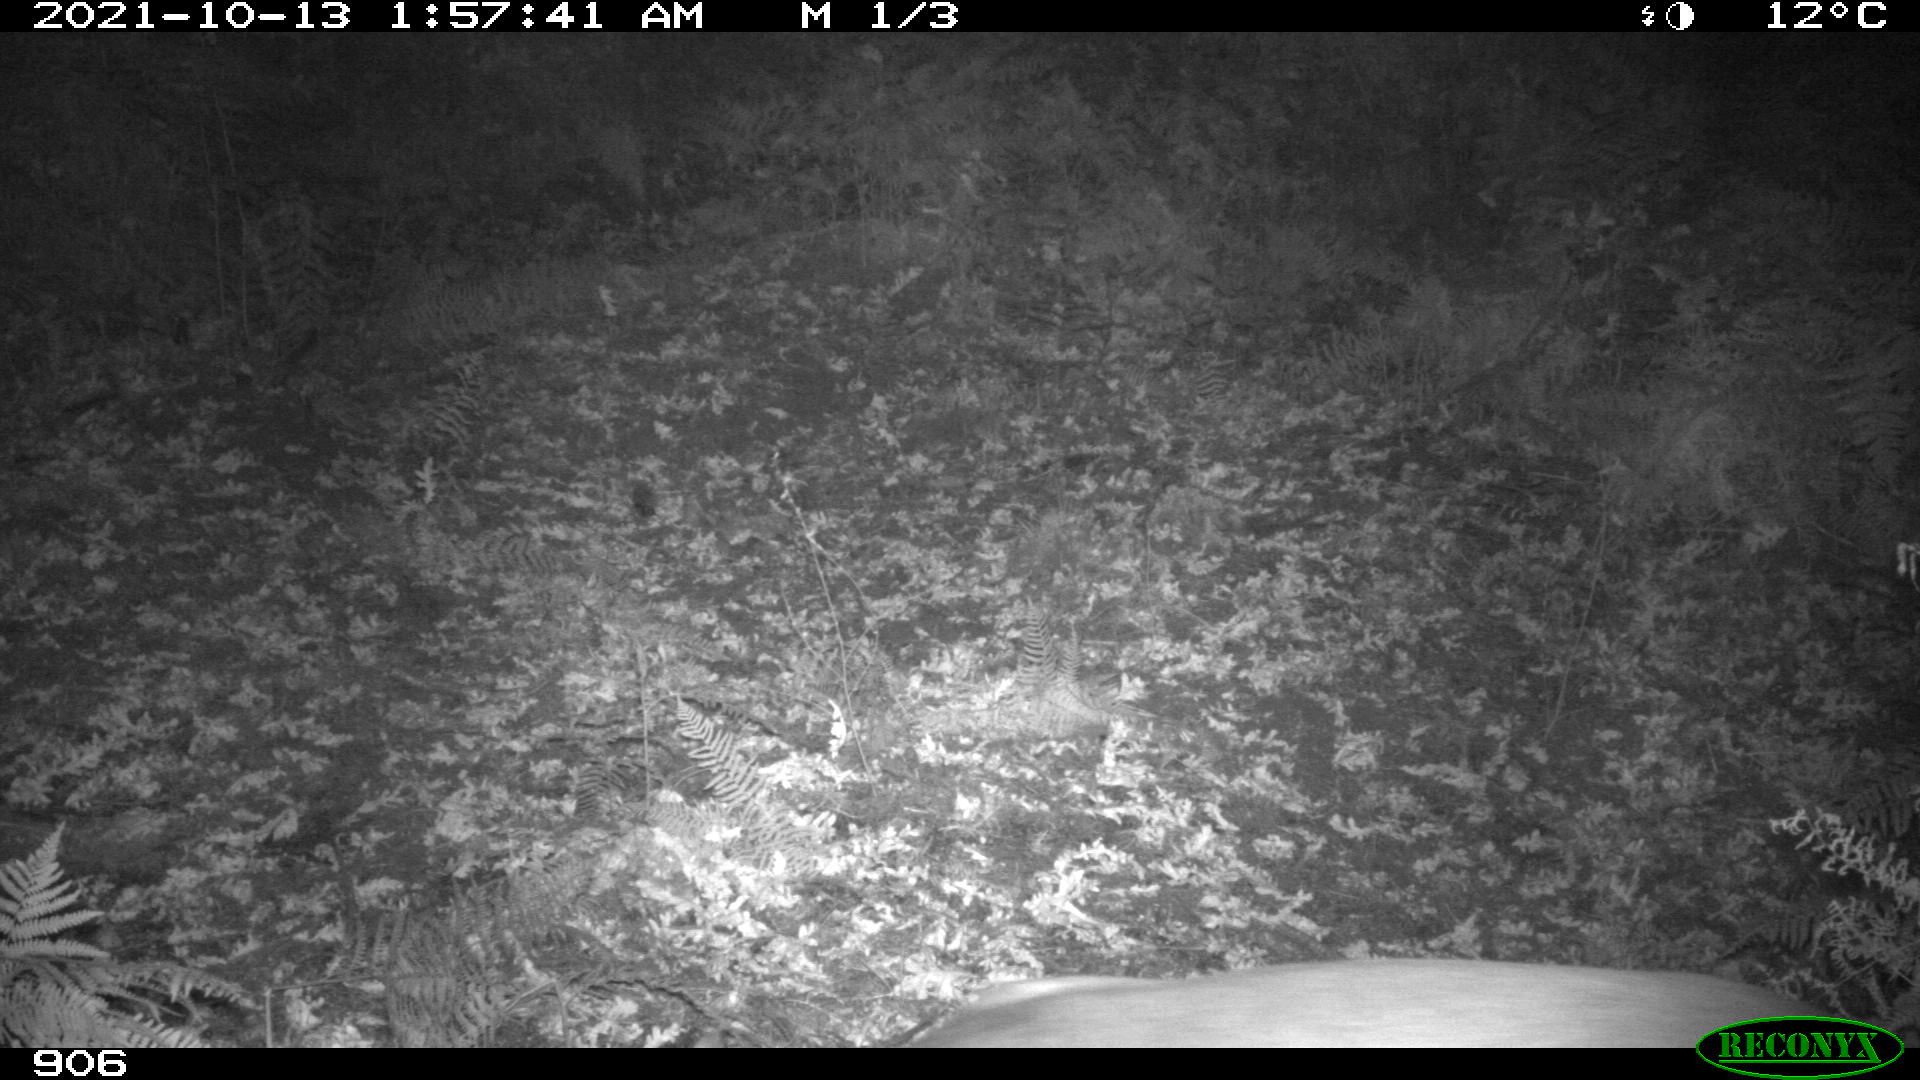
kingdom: Animalia
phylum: Chordata
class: Mammalia
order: Artiodactyla
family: Cervidae
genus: Capreolus
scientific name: Capreolus capreolus
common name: Western roe deer
